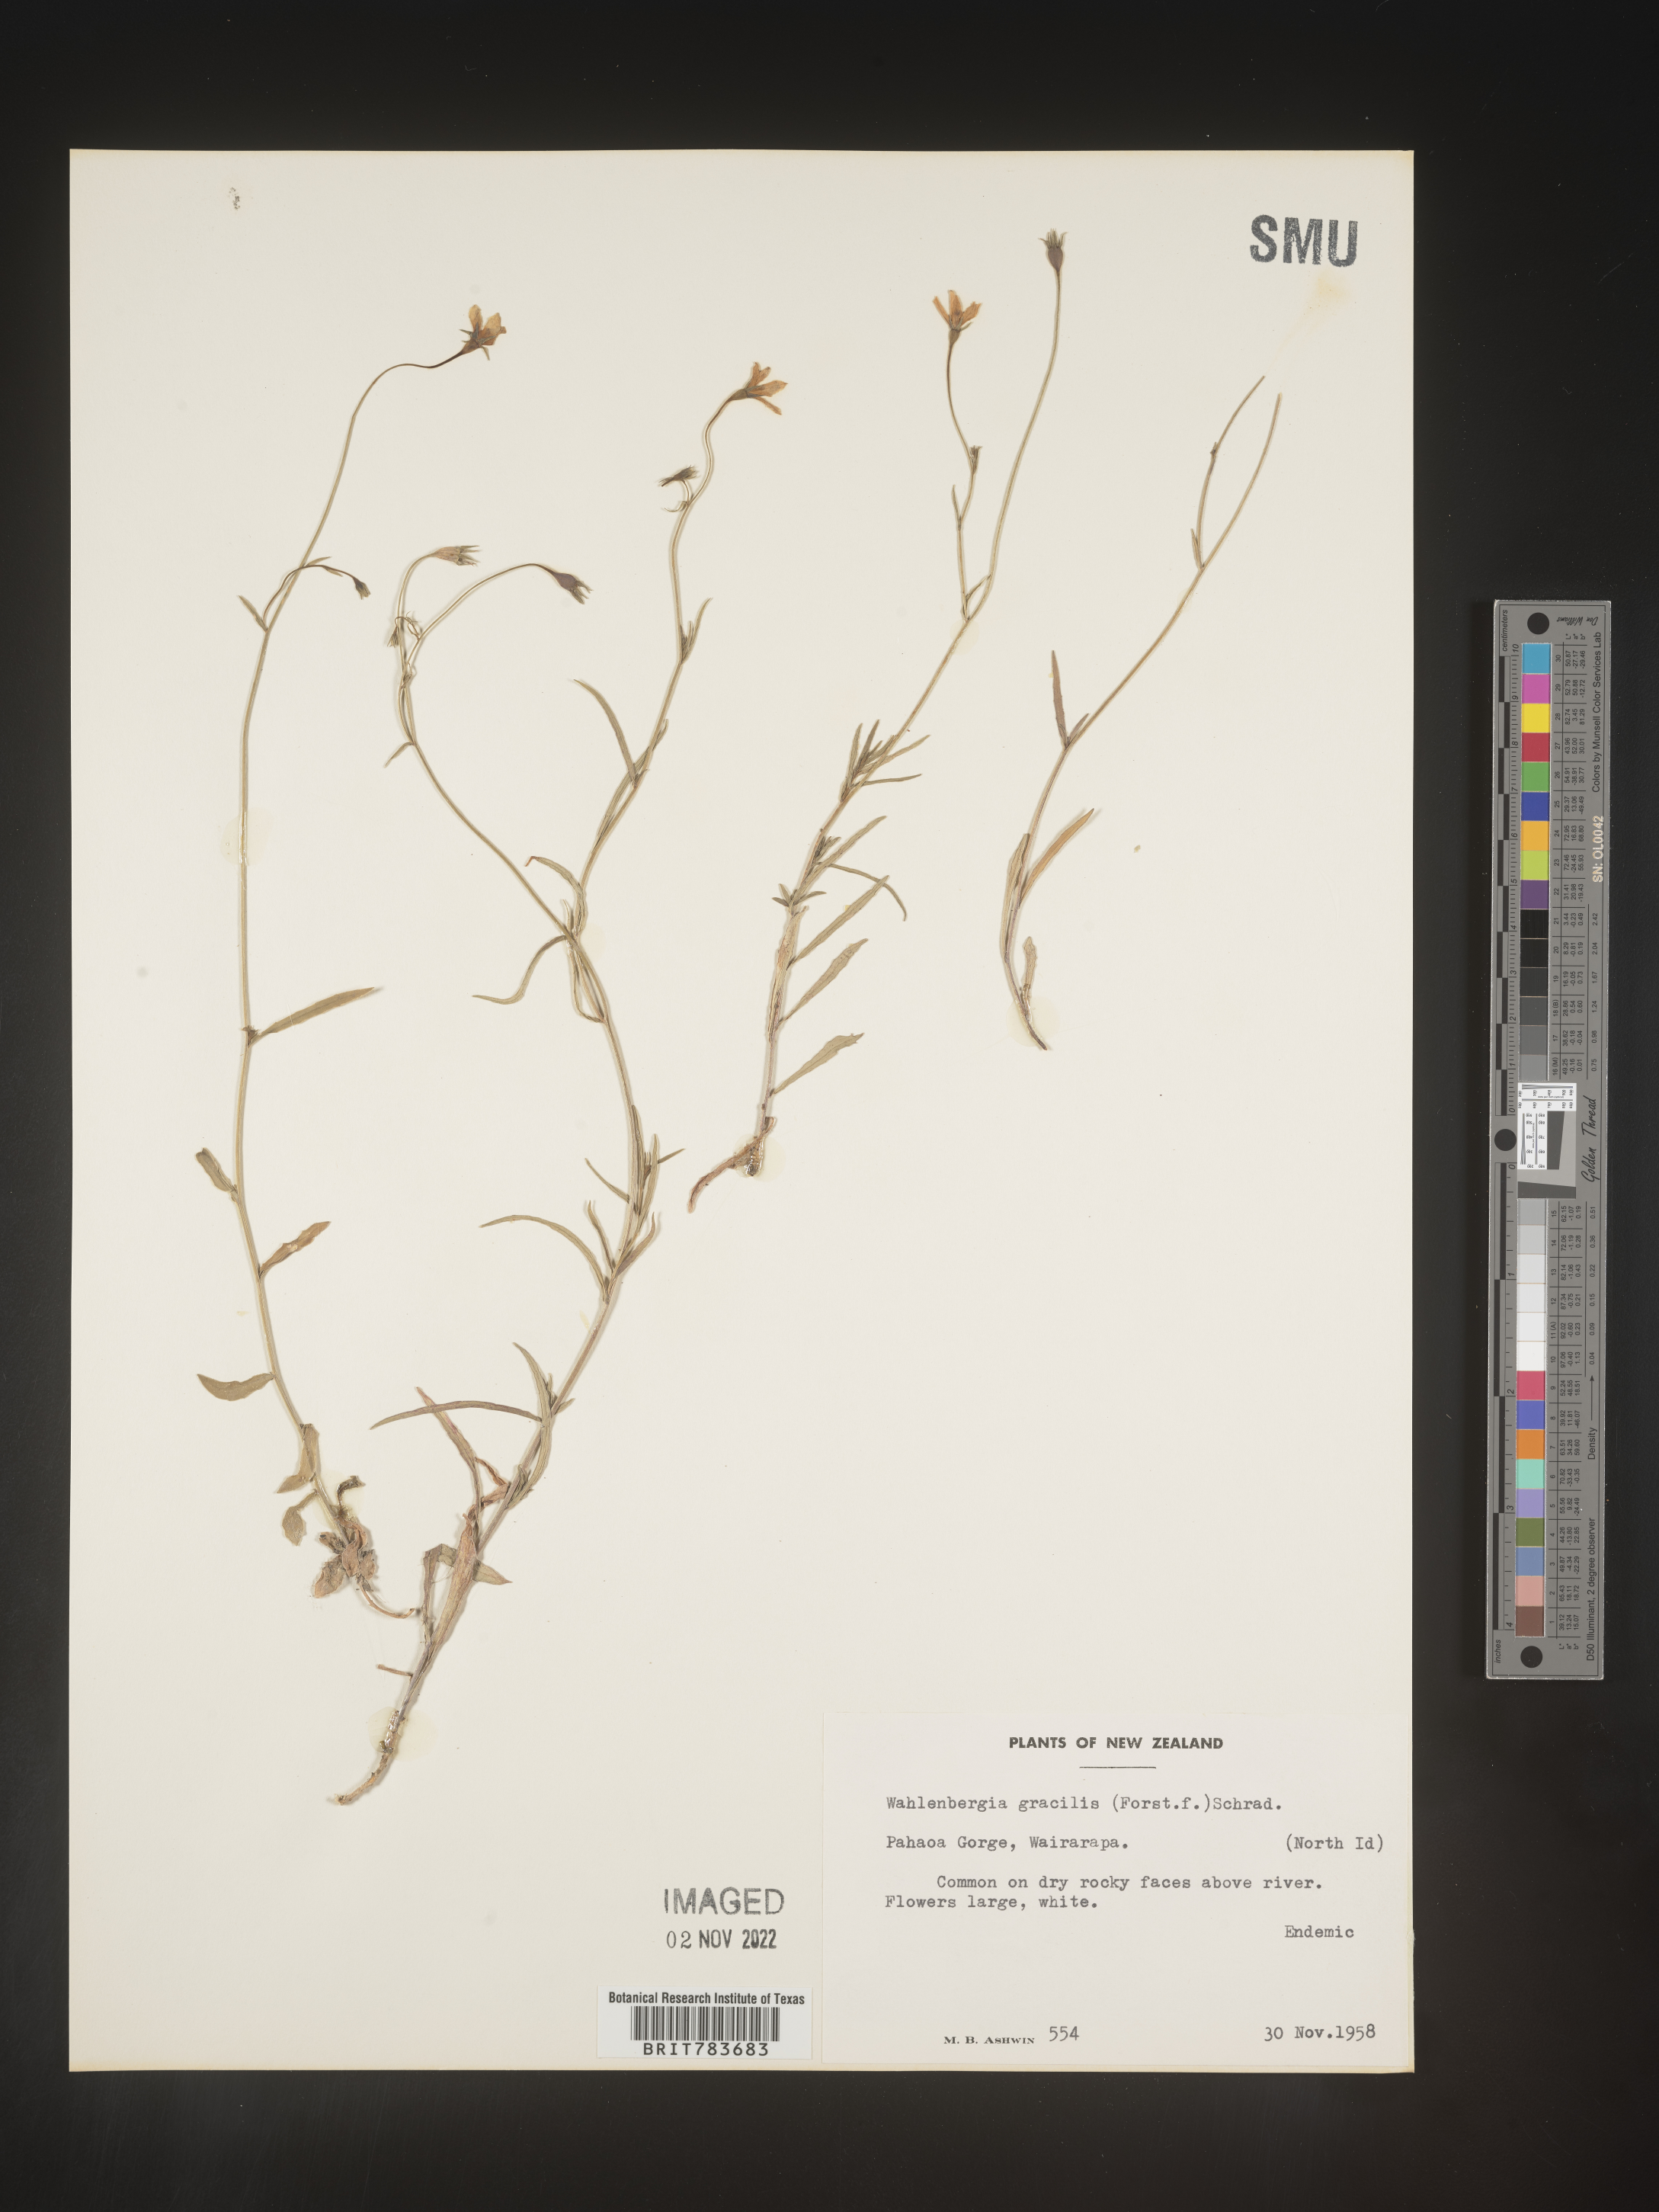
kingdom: Plantae
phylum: Tracheophyta
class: Magnoliopsida
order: Asterales
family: Campanulaceae
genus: Wahlenbergia
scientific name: Wahlenbergia
